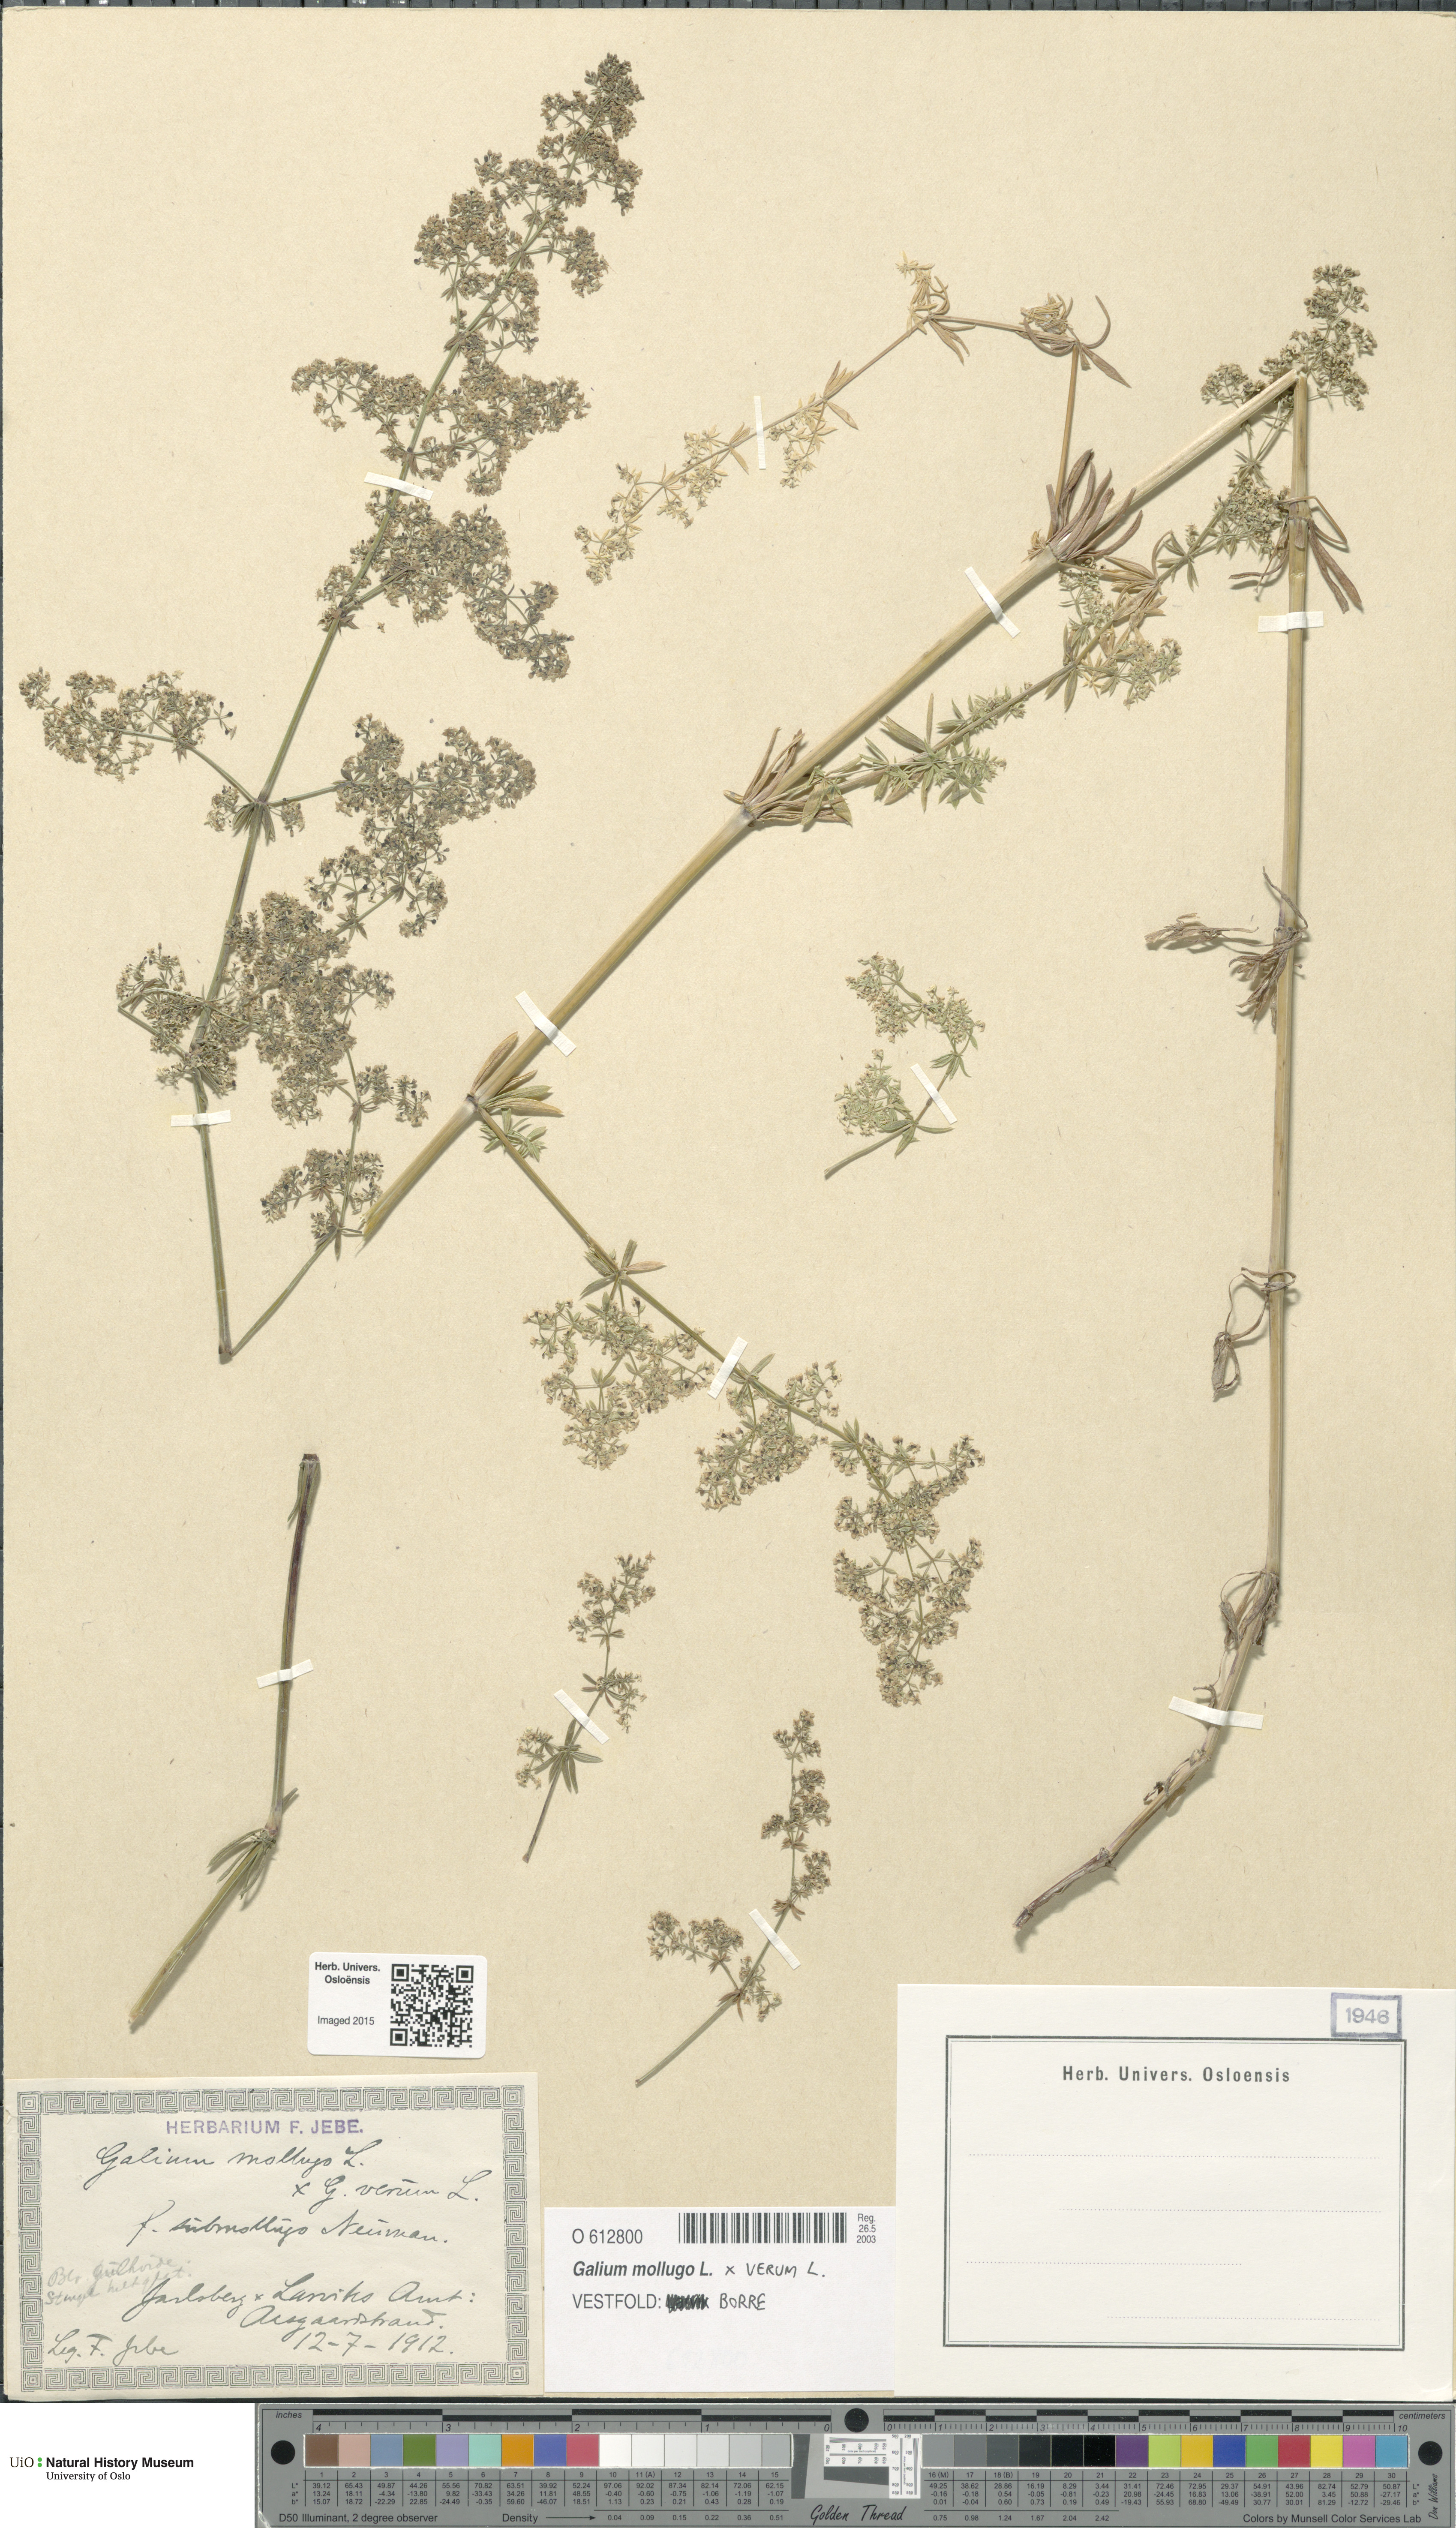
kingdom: Plantae
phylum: Tracheophyta
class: Magnoliopsida
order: Gentianales
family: Rubiaceae
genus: Galium
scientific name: Galium
